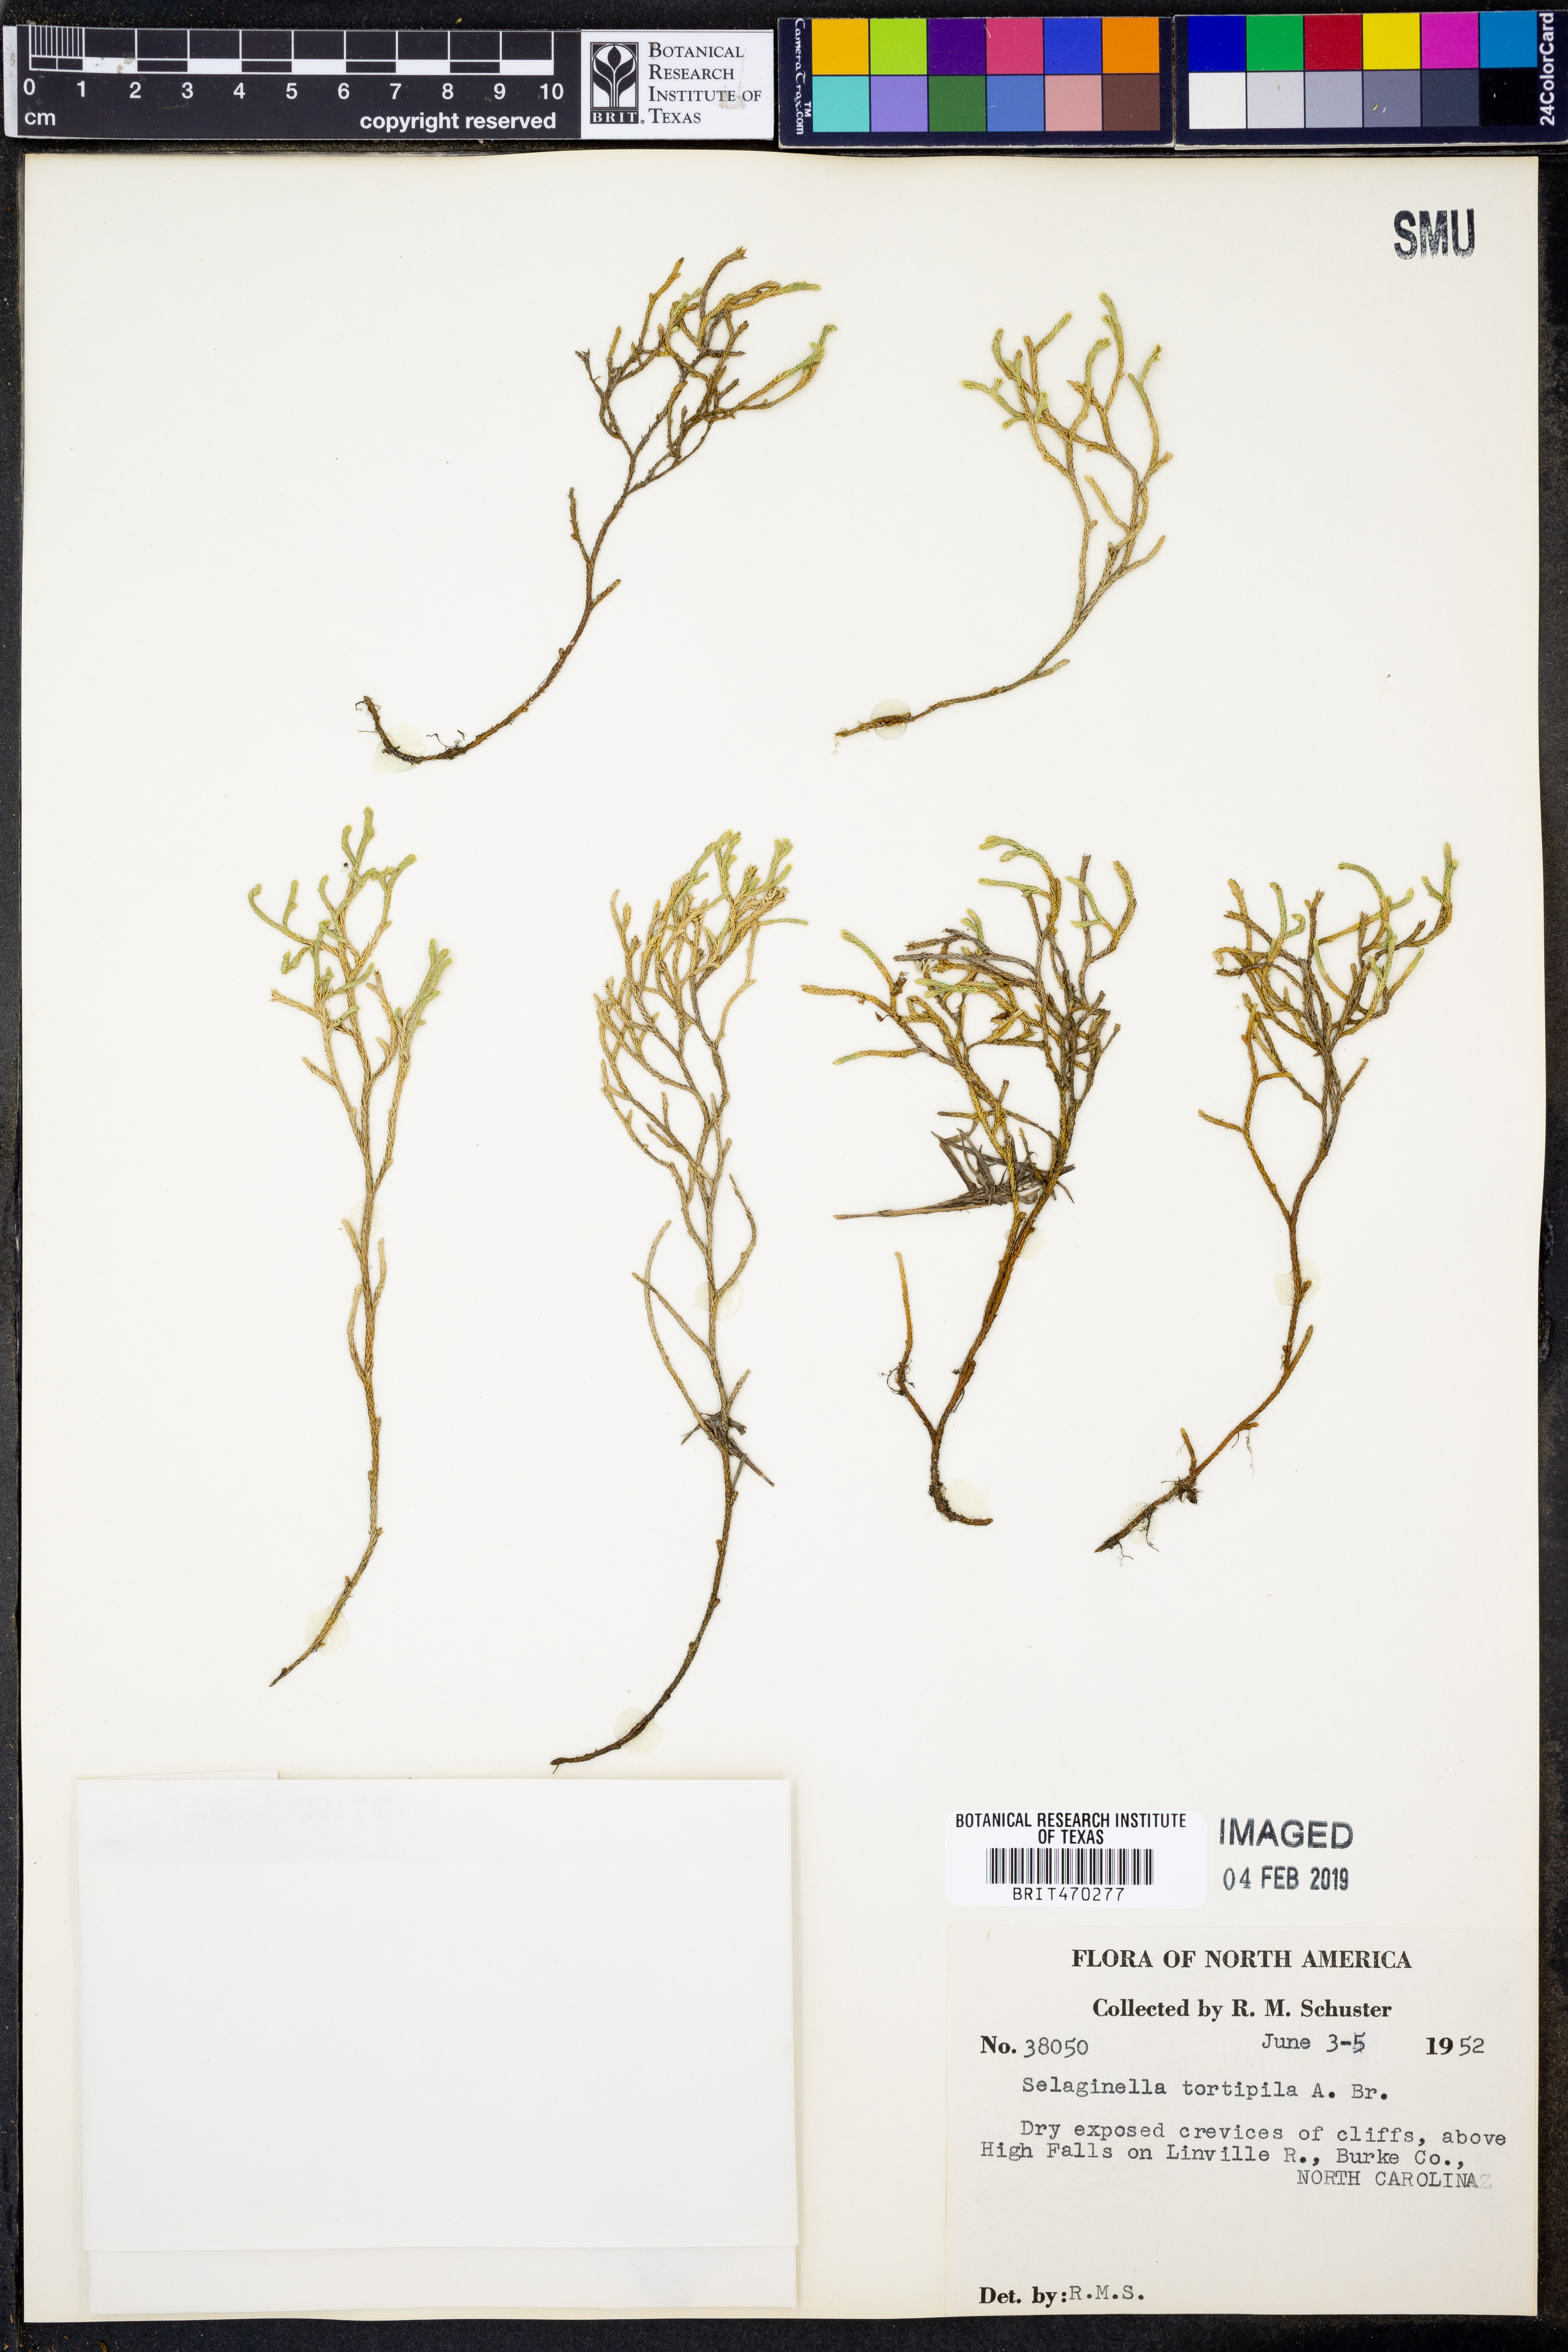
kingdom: Plantae
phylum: Tracheophyta
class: Lycopodiopsida
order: Selaginellales
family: Selaginellaceae
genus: Selaginella
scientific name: Selaginella tortipila
